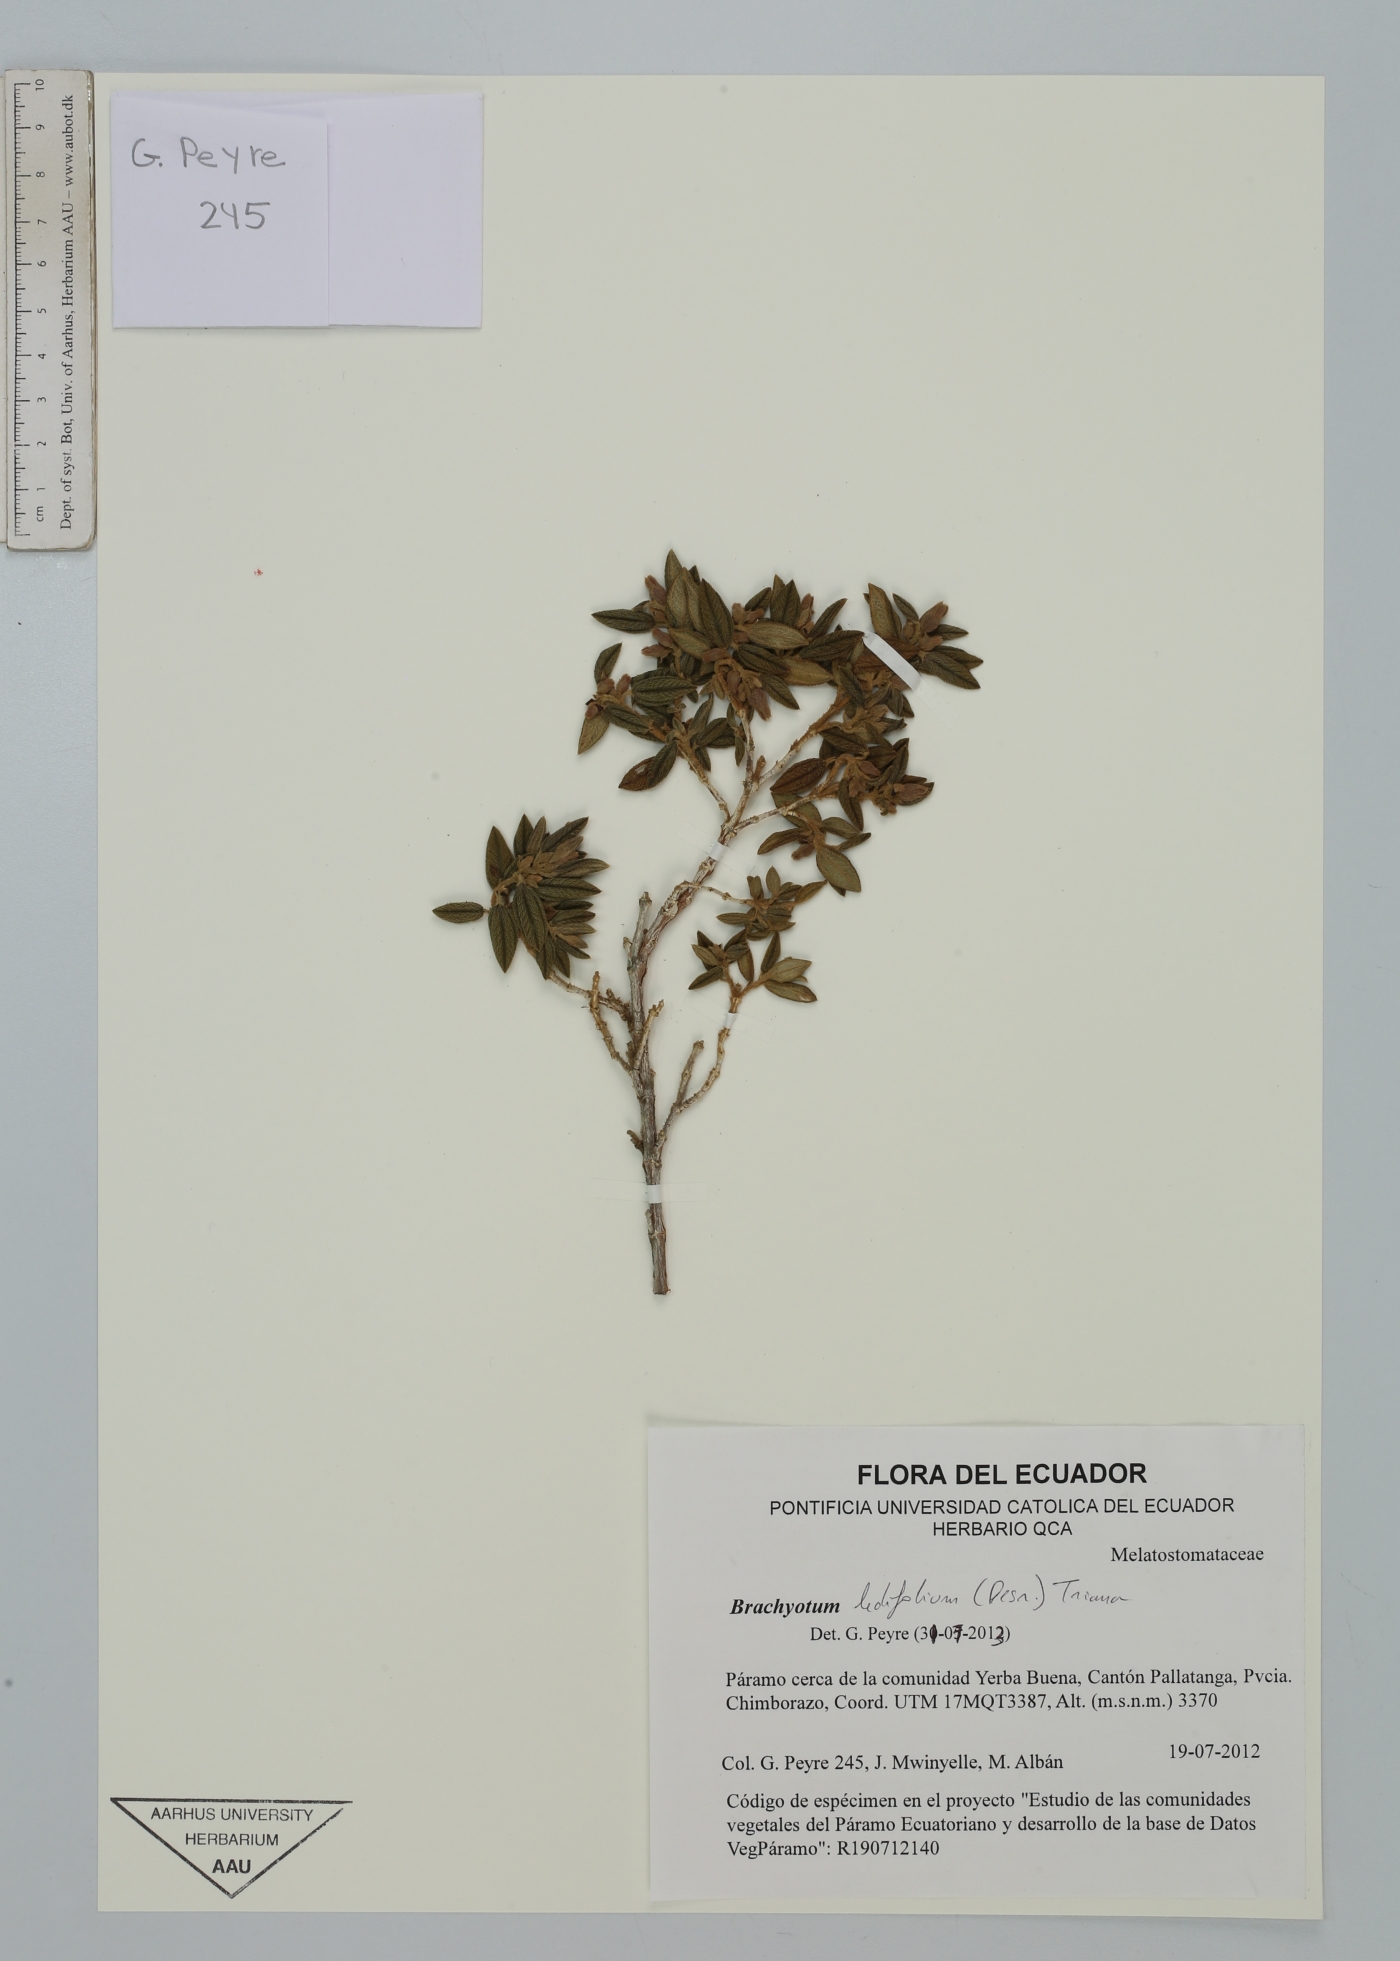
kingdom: Plantae
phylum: Tracheophyta
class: Magnoliopsida
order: Myrtales
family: Melastomataceae
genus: Brachyotum
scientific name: Brachyotum ledifolium
